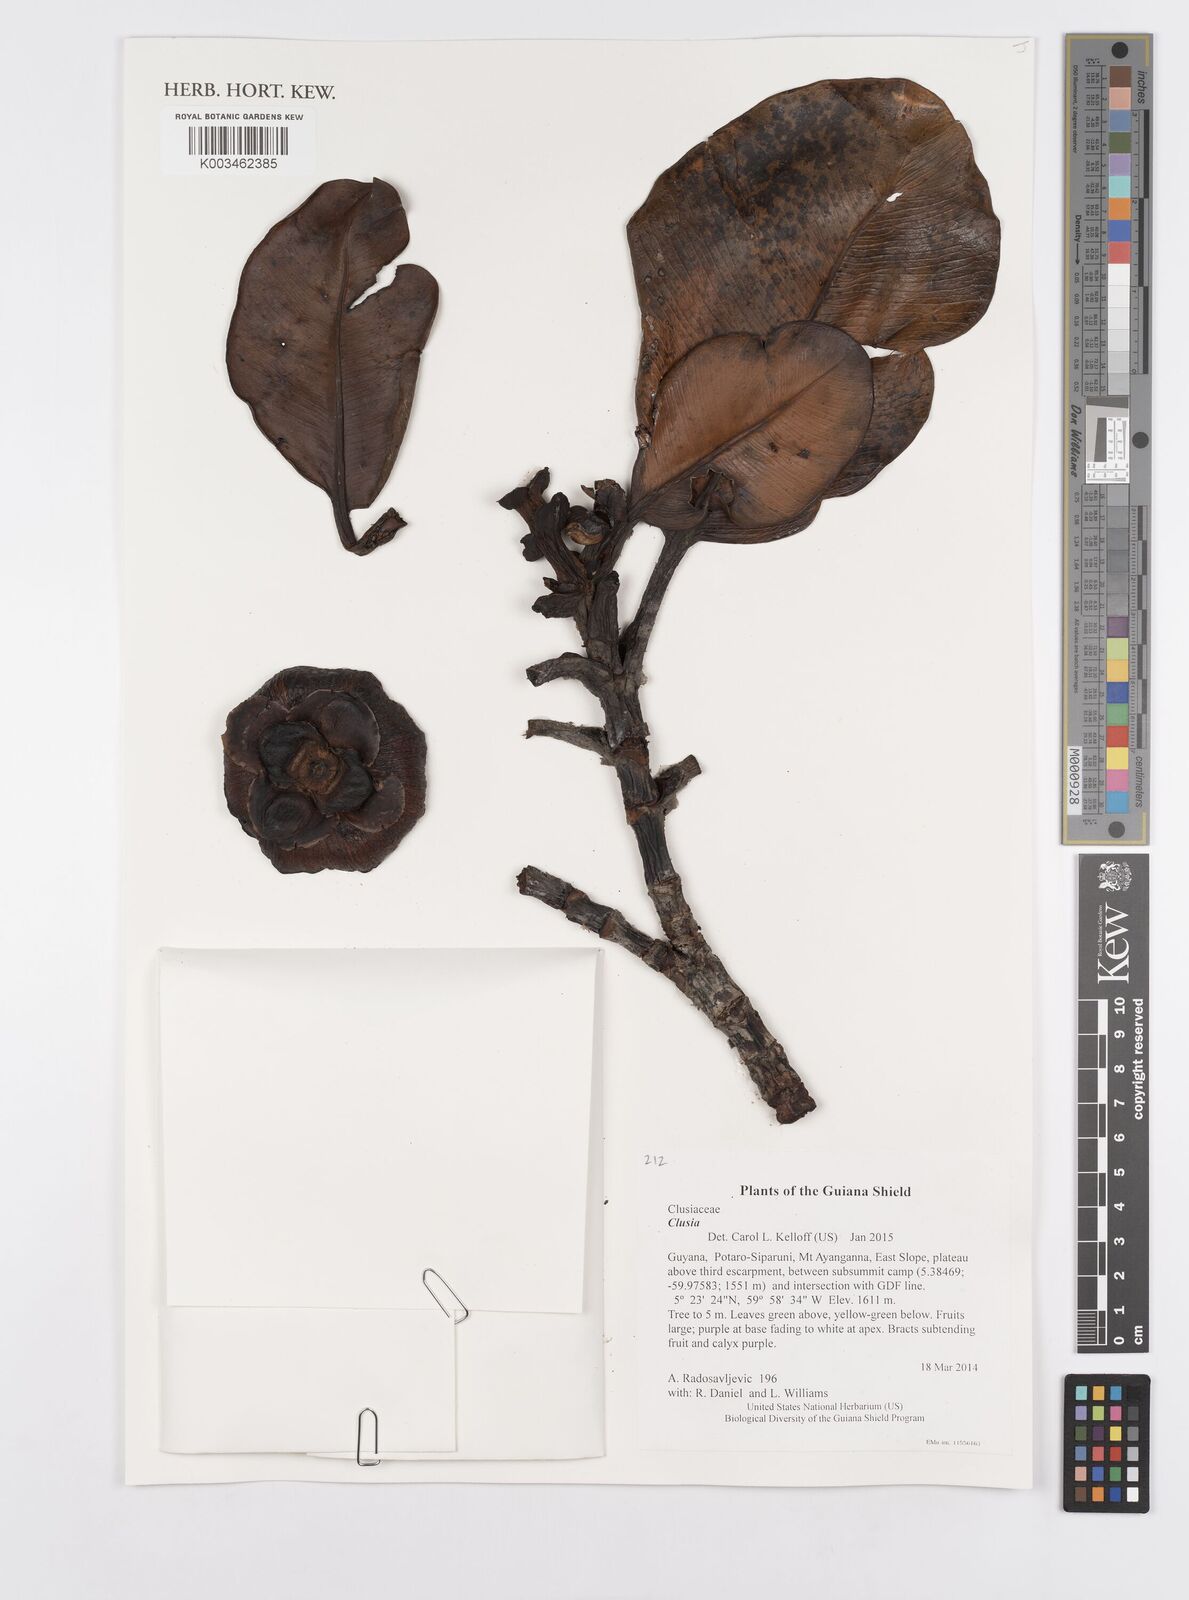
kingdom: Plantae
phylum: Tracheophyta
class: Magnoliopsida
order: Malpighiales
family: Clusiaceae
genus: Clusia
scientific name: Clusia
